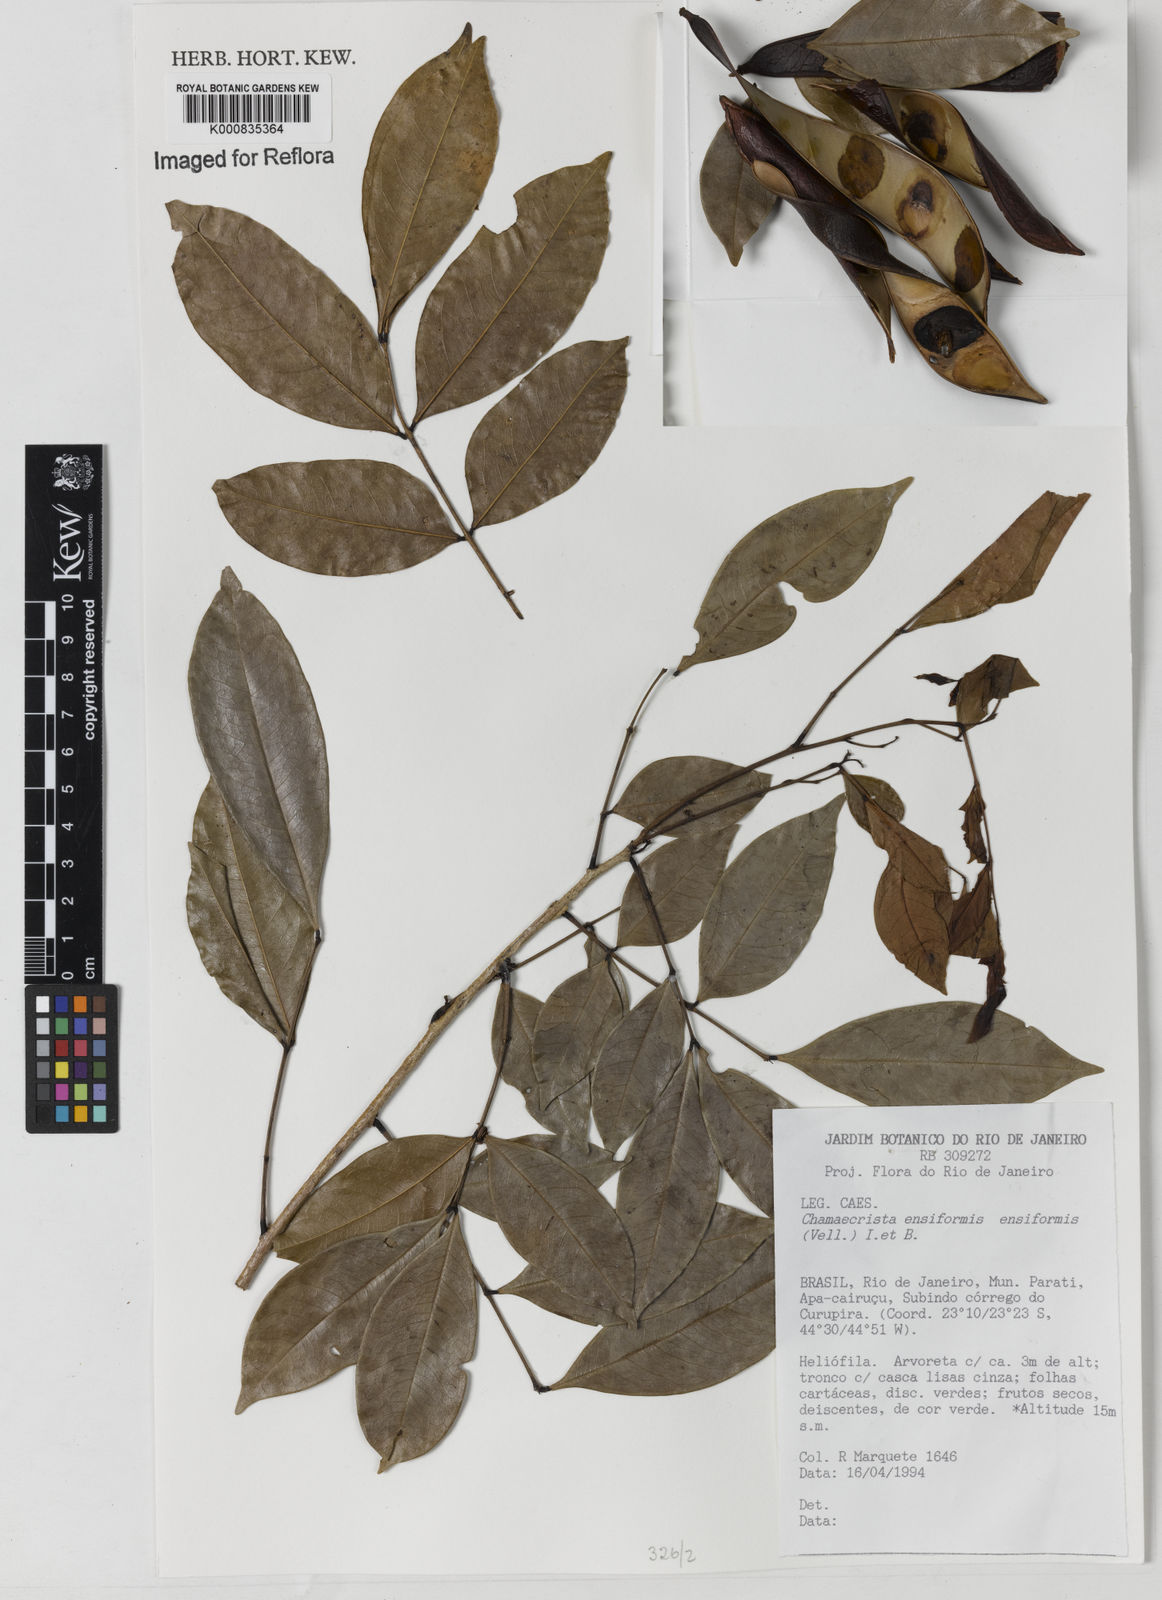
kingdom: Plantae
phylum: Tracheophyta
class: Magnoliopsida
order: Fabales
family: Fabaceae
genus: Chamaecrista
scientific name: Chamaecrista ensiformis
